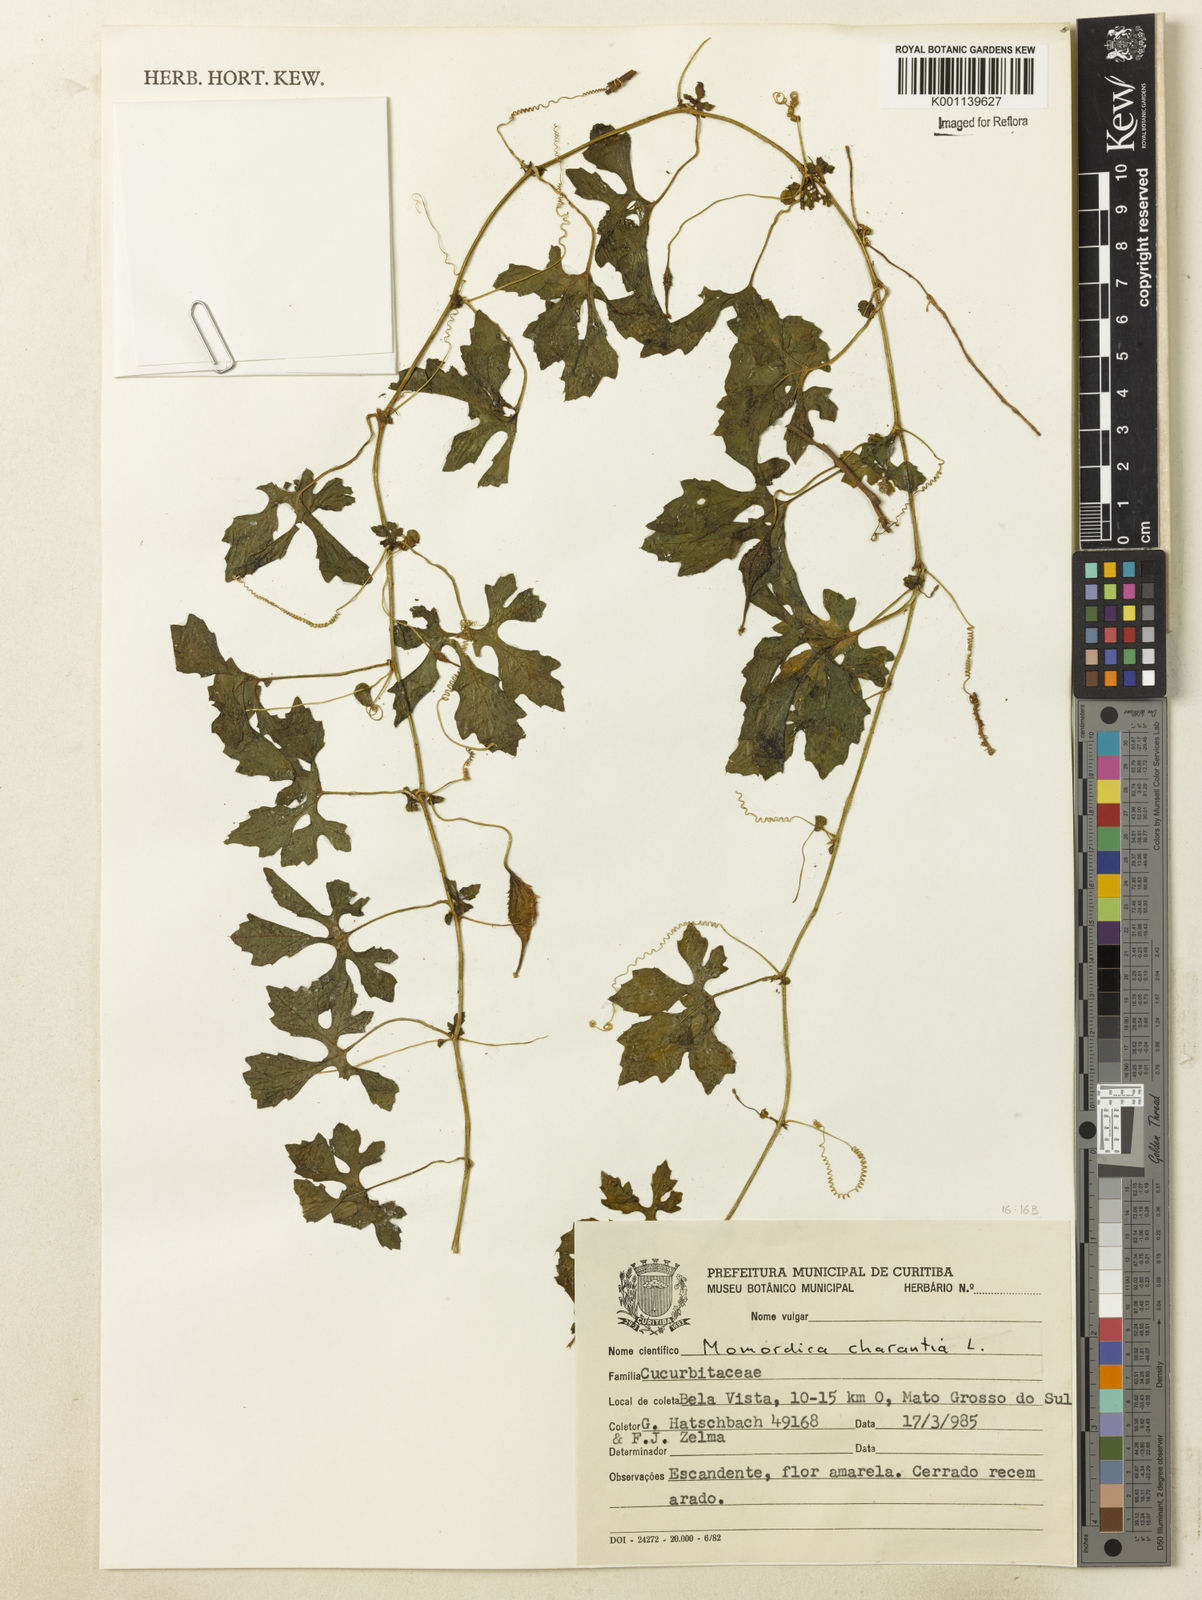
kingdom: Plantae
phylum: Tracheophyta
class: Magnoliopsida
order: Cucurbitales
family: Cucurbitaceae
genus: Momordica
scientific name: Momordica charantia
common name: Balsampear
